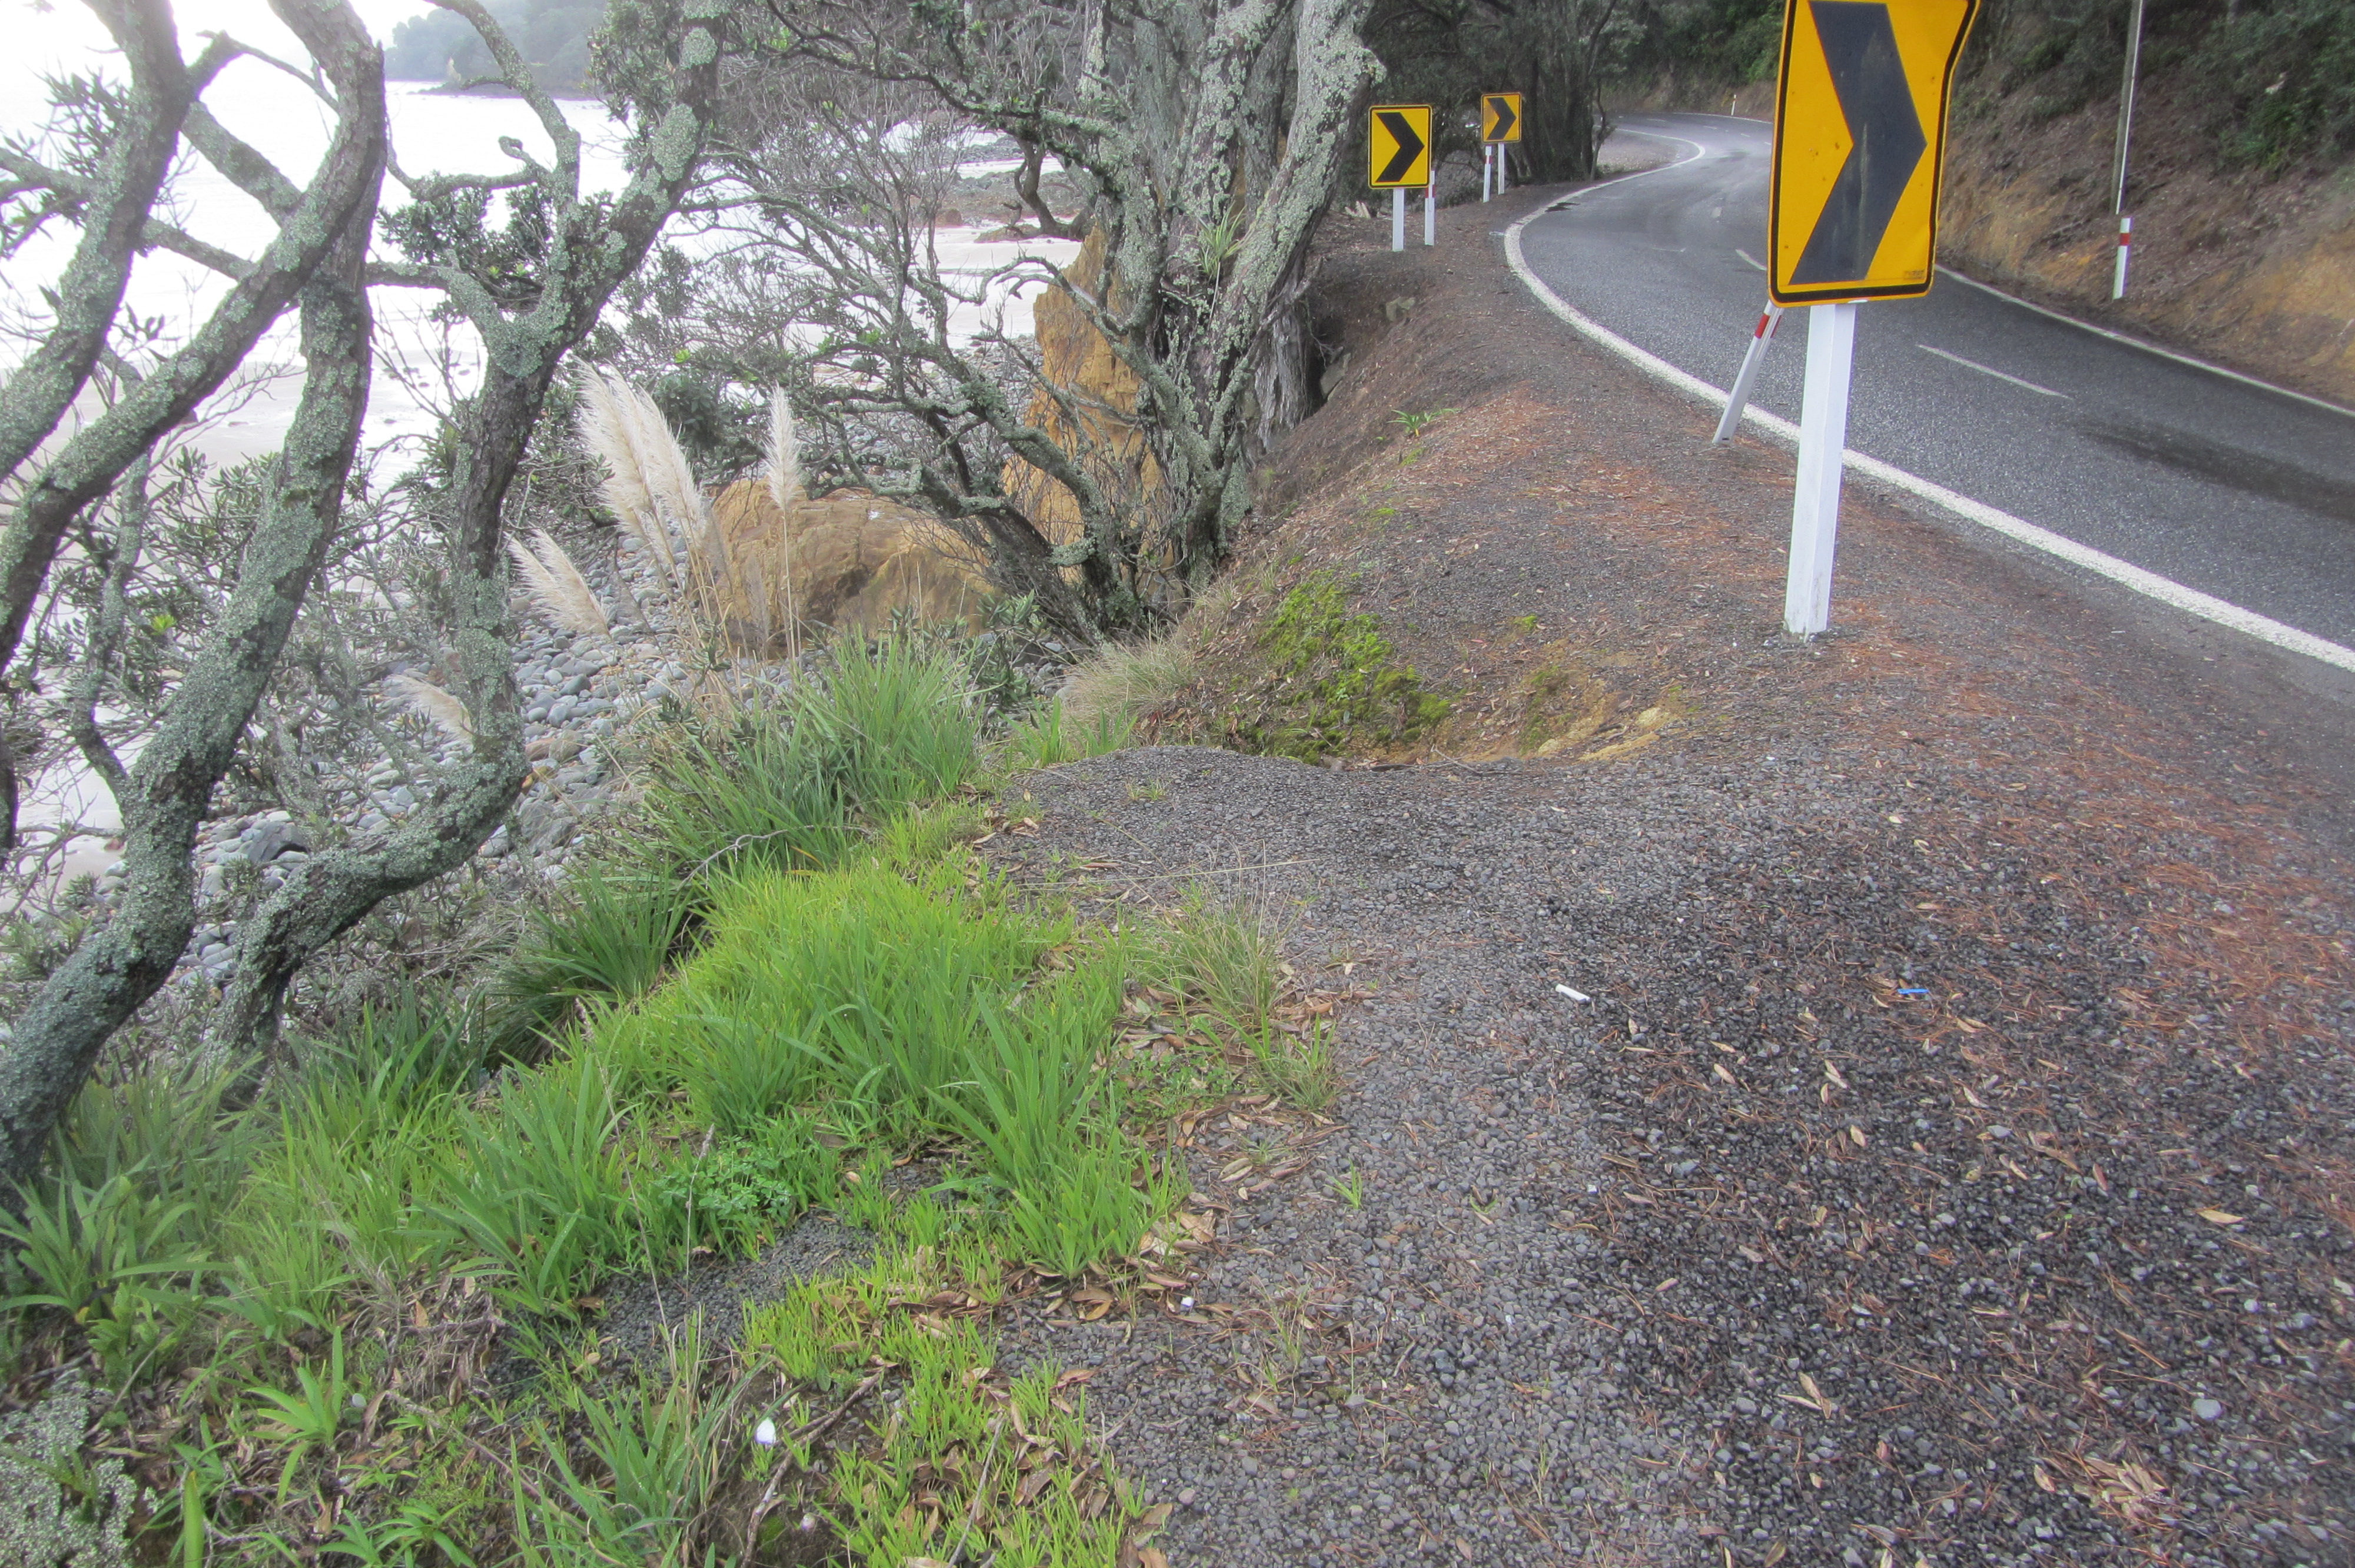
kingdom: Plantae
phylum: Tracheophyta
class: Liliopsida
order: Asparagales
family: Iridaceae
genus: Aristea
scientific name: Aristea ecklonii
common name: Blue corn-lily
